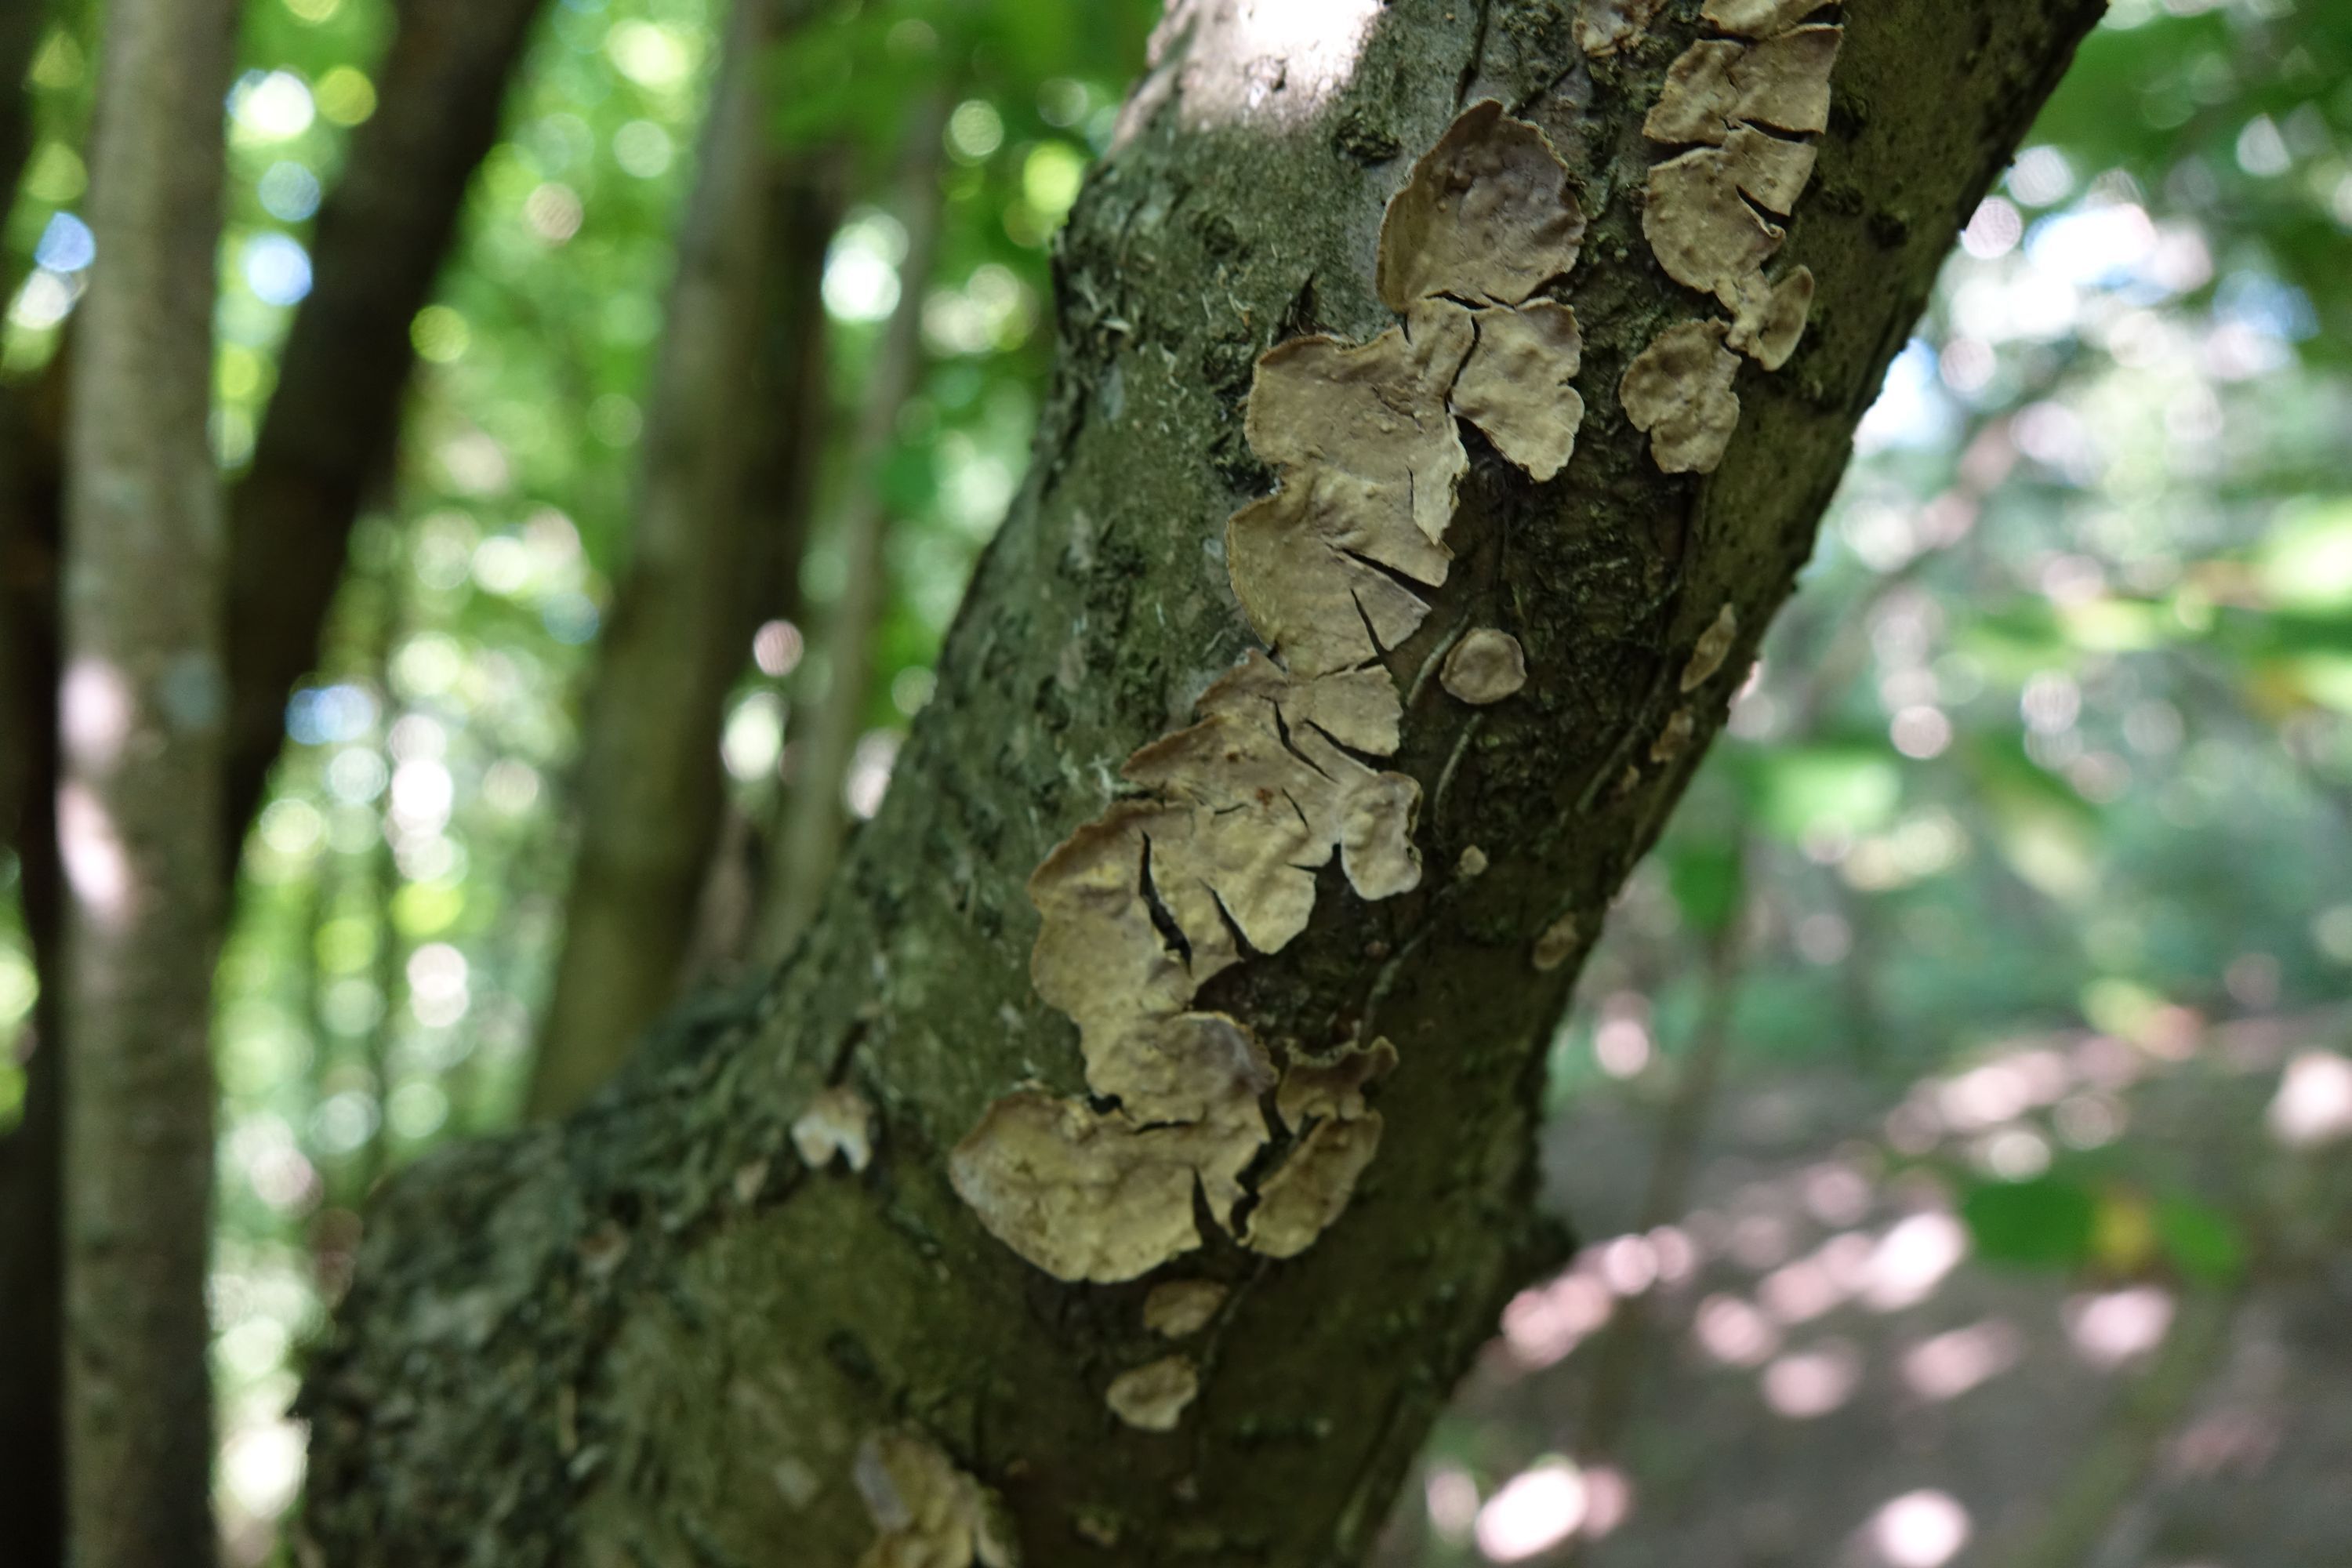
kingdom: Fungi
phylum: Basidiomycota
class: Agaricomycetes
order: Russulales
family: Stereaceae
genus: Stereum
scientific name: Stereum rugosum
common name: Bleeding broadleaf crust
